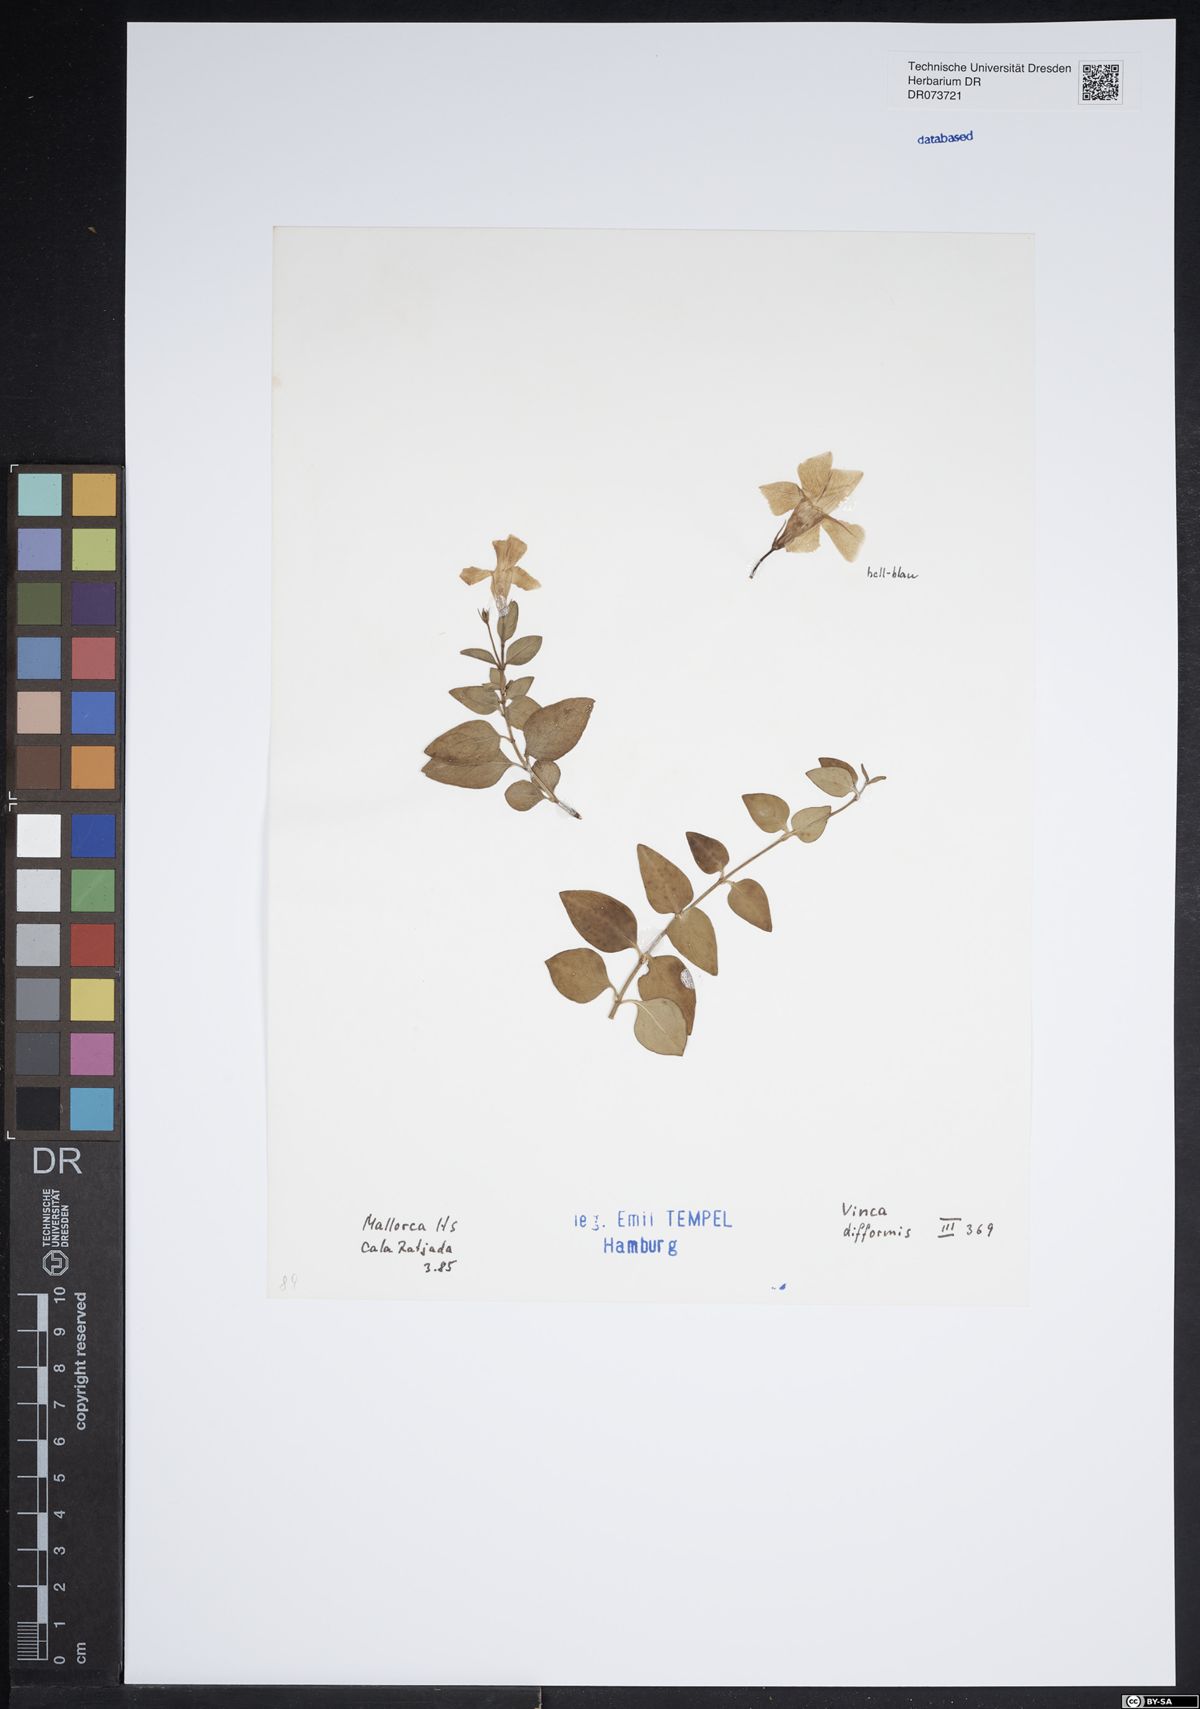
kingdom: Plantae
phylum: Tracheophyta
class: Magnoliopsida
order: Gentianales
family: Apocynaceae
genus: Vinca
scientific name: Vinca difformis
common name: Intermediate periwinkle
